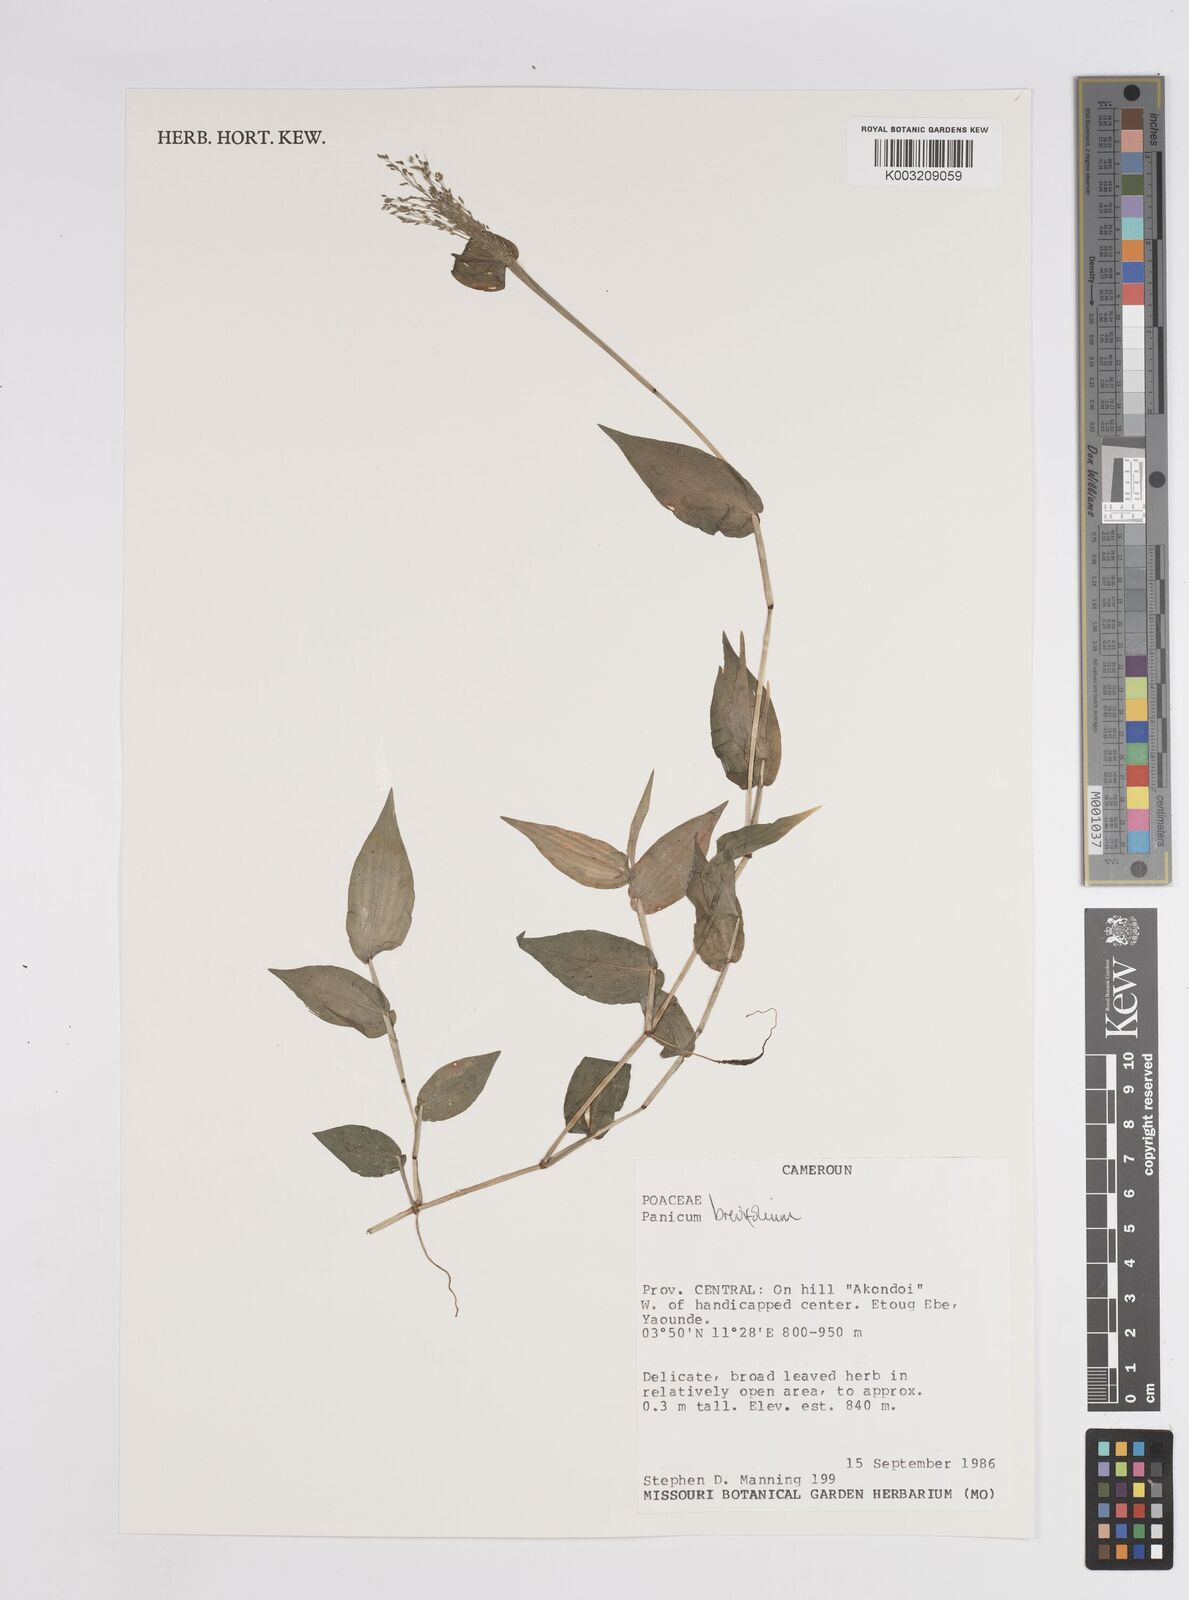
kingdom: Plantae
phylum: Tracheophyta
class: Liliopsida
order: Poales
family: Poaceae
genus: Panicum
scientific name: Panicum brevifolium
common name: Shortleaf panic grass
